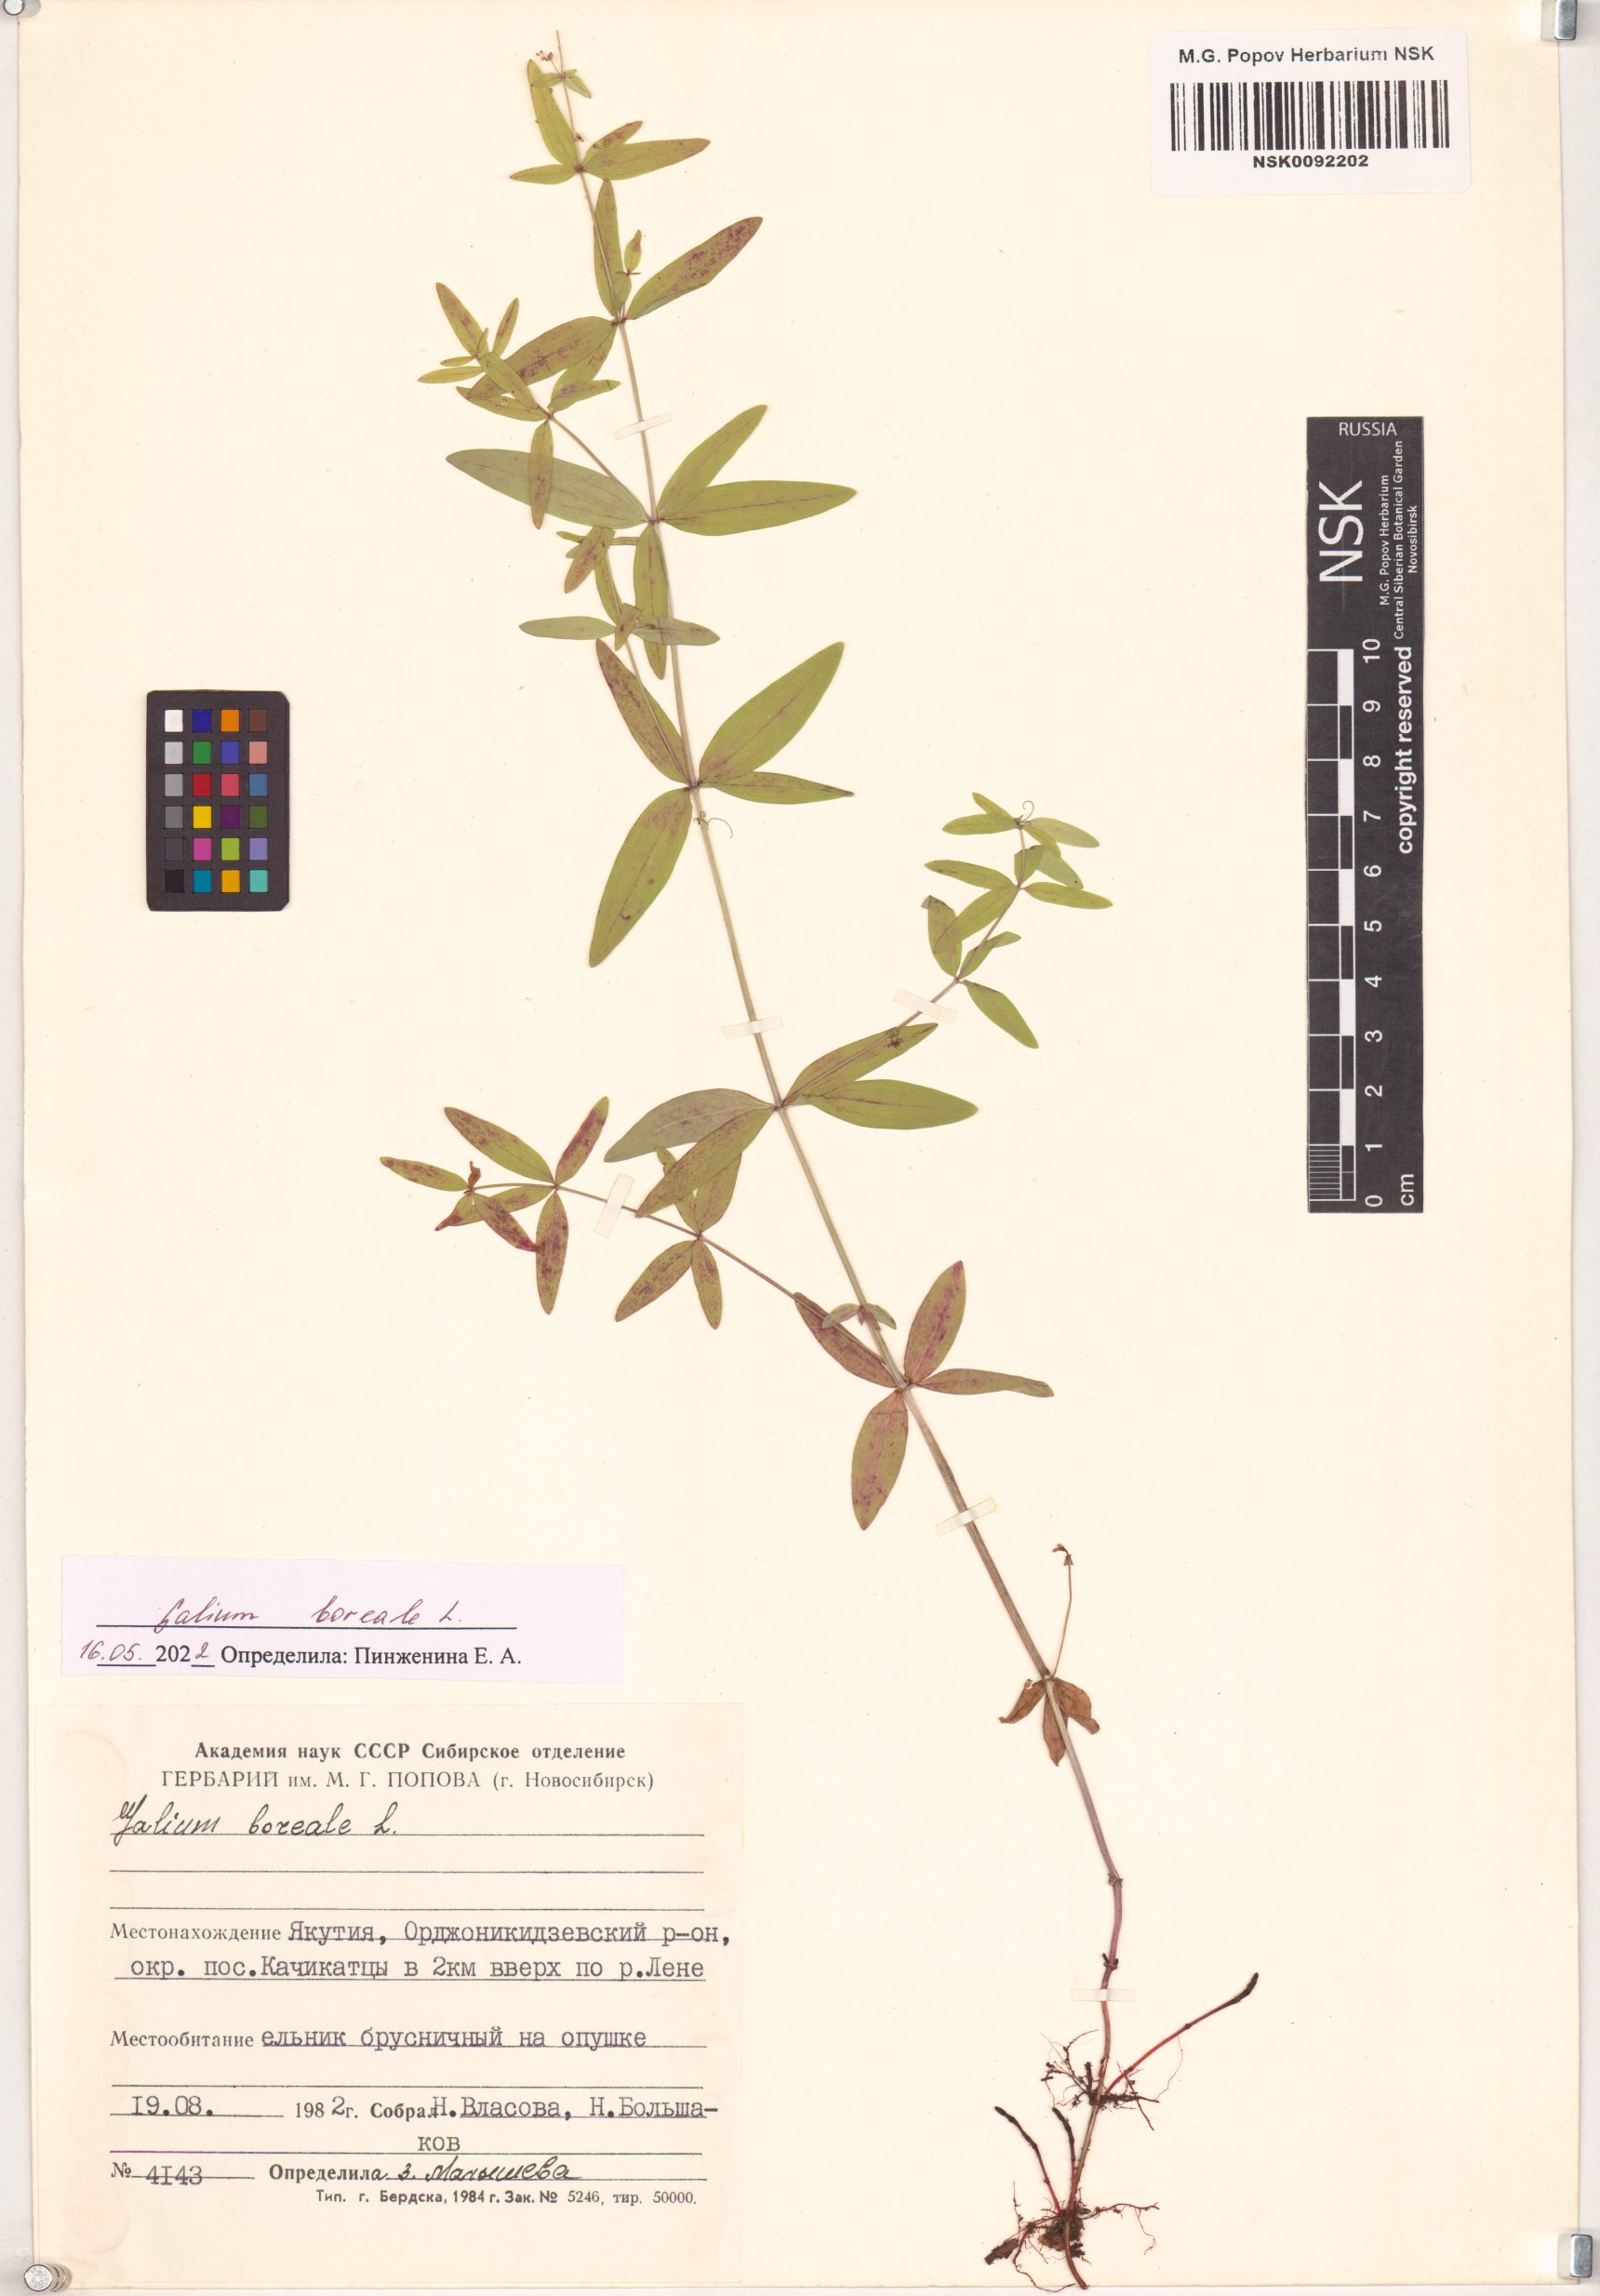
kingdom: Plantae
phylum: Tracheophyta
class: Magnoliopsida
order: Gentianales
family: Rubiaceae
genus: Galium
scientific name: Galium boreale
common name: Northern bedstraw
